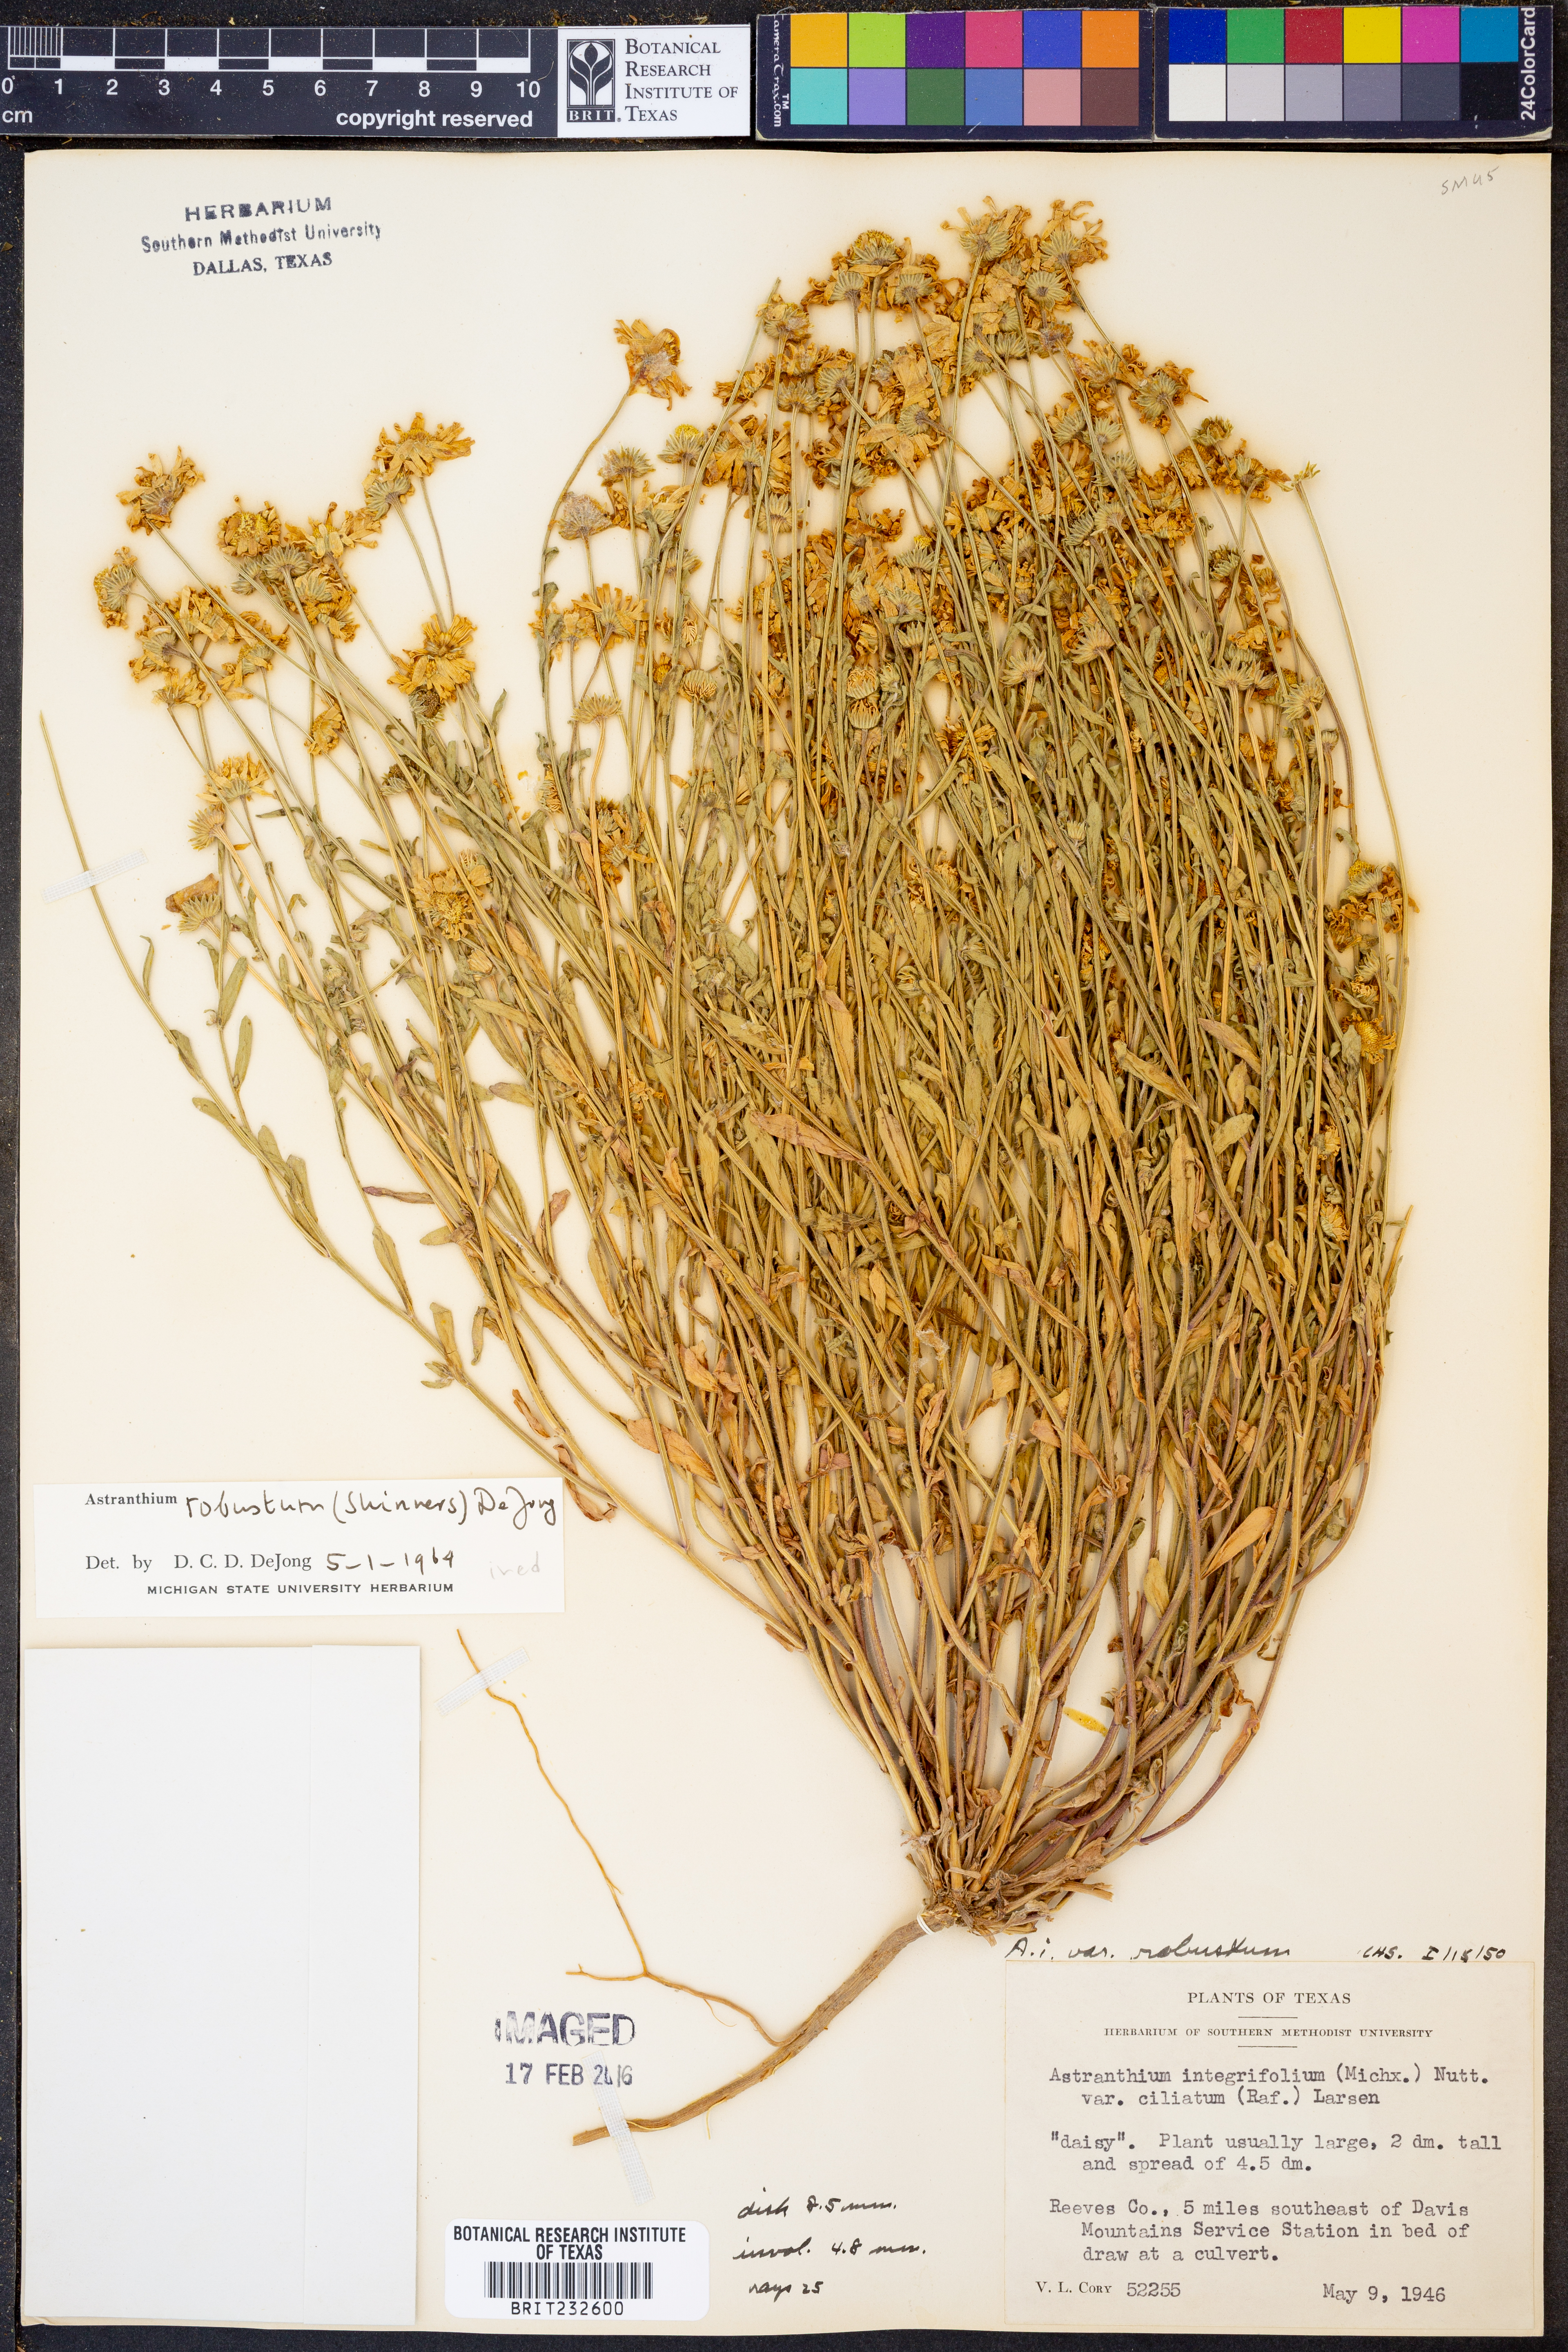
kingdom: Plantae
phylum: Tracheophyta
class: Magnoliopsida
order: Asterales
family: Asteraceae
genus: Astranthium
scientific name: Astranthium robustum
